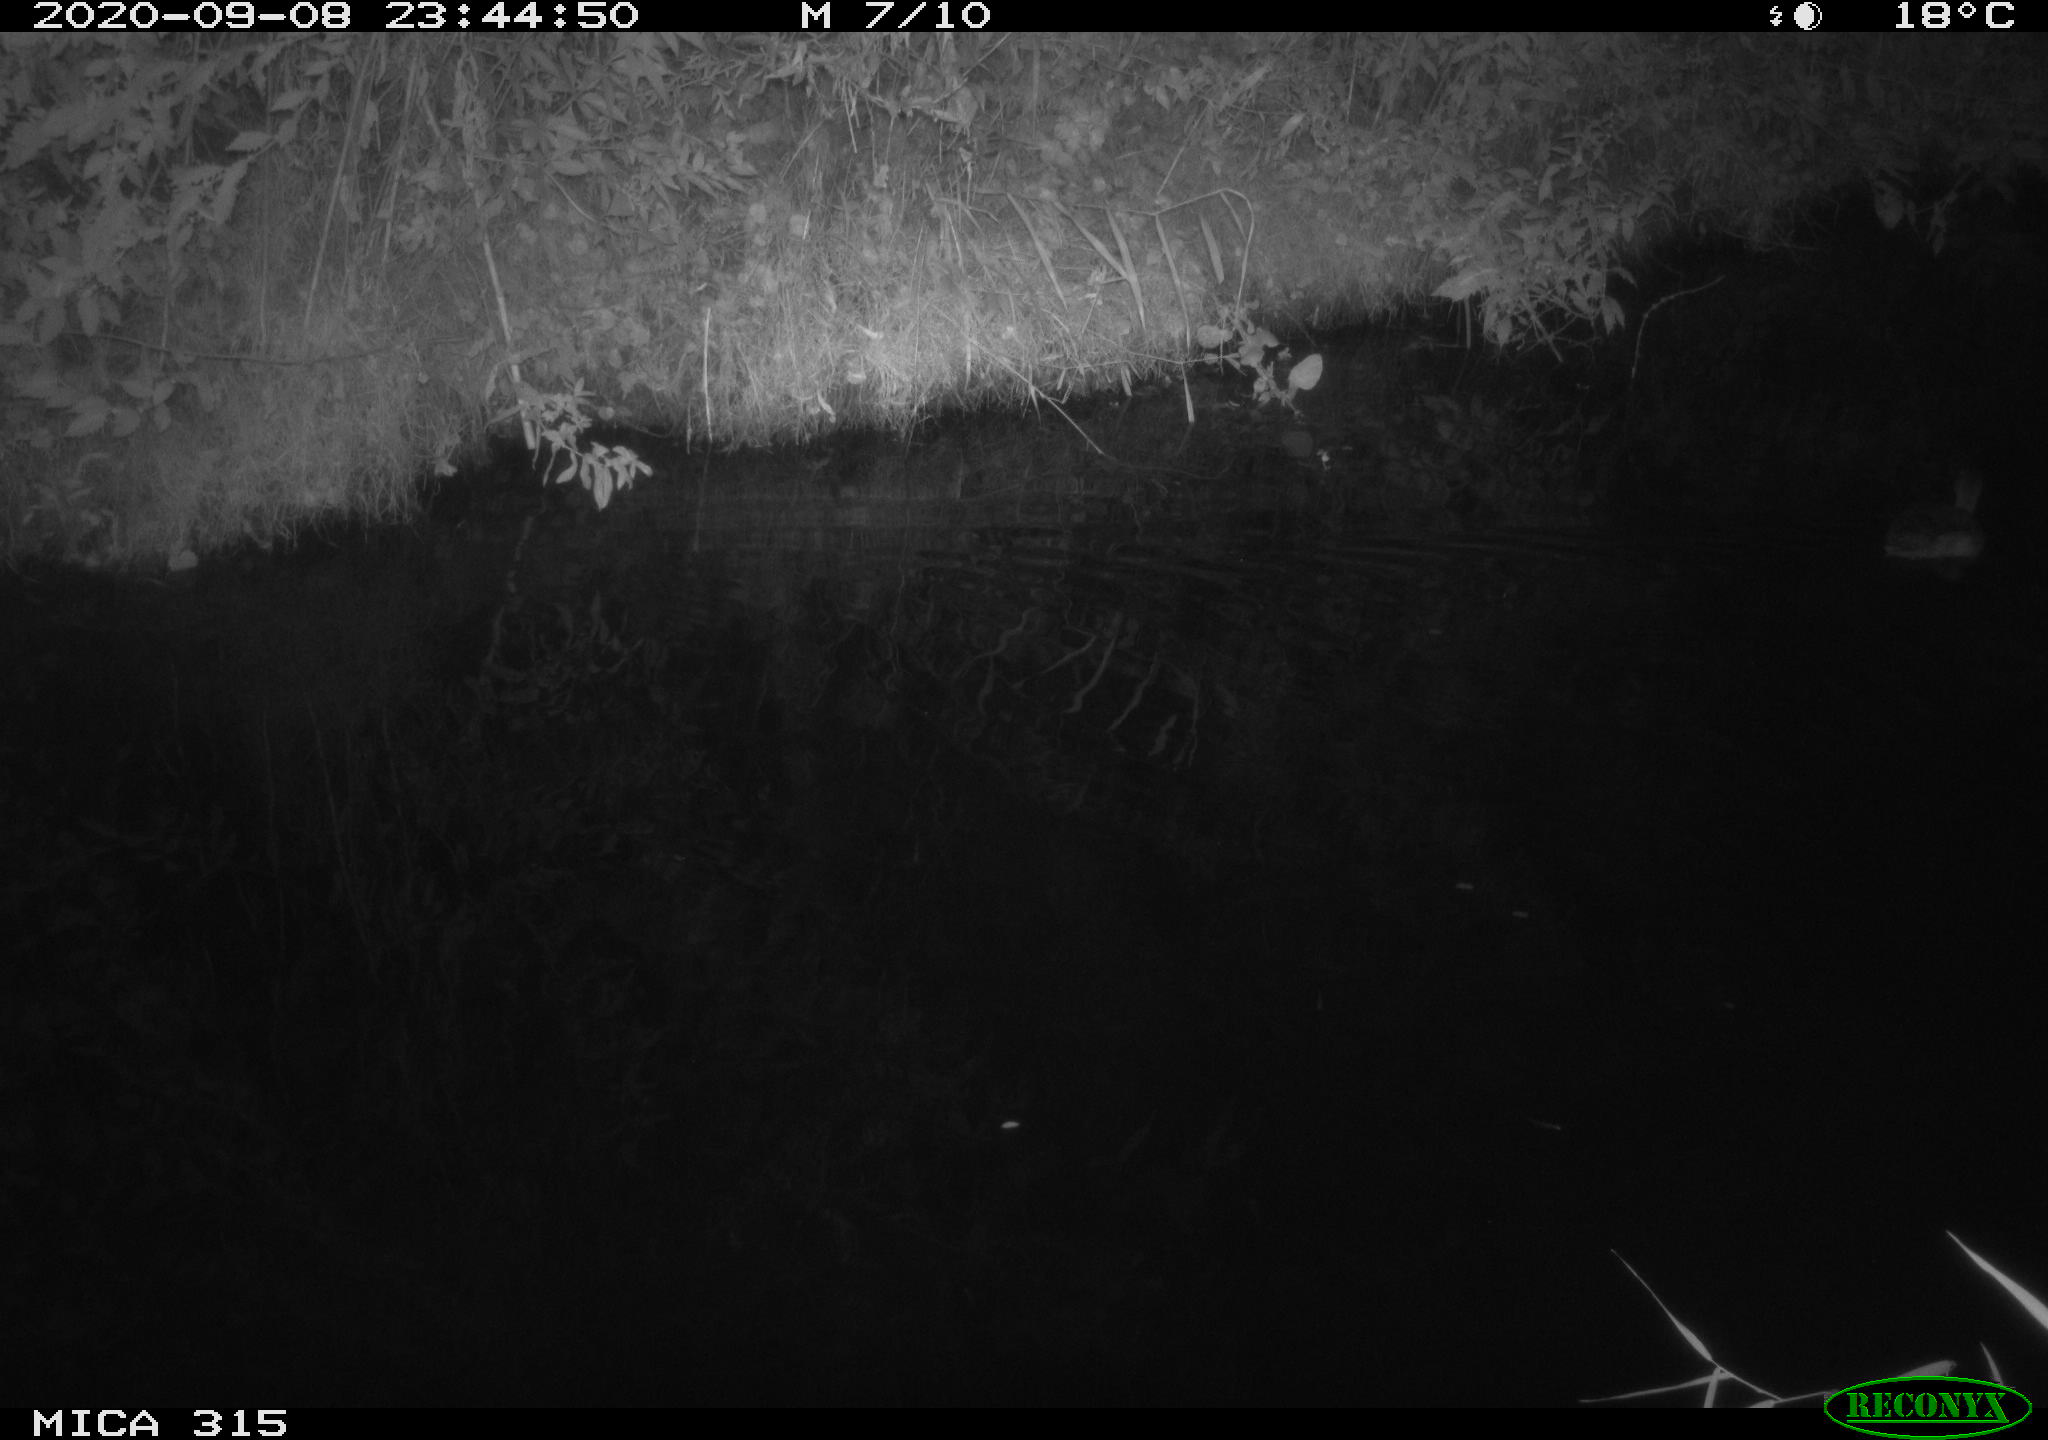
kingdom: Animalia
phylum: Chordata
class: Aves
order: Anseriformes
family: Anatidae
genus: Anas
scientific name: Anas platyrhynchos
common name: Mallard
